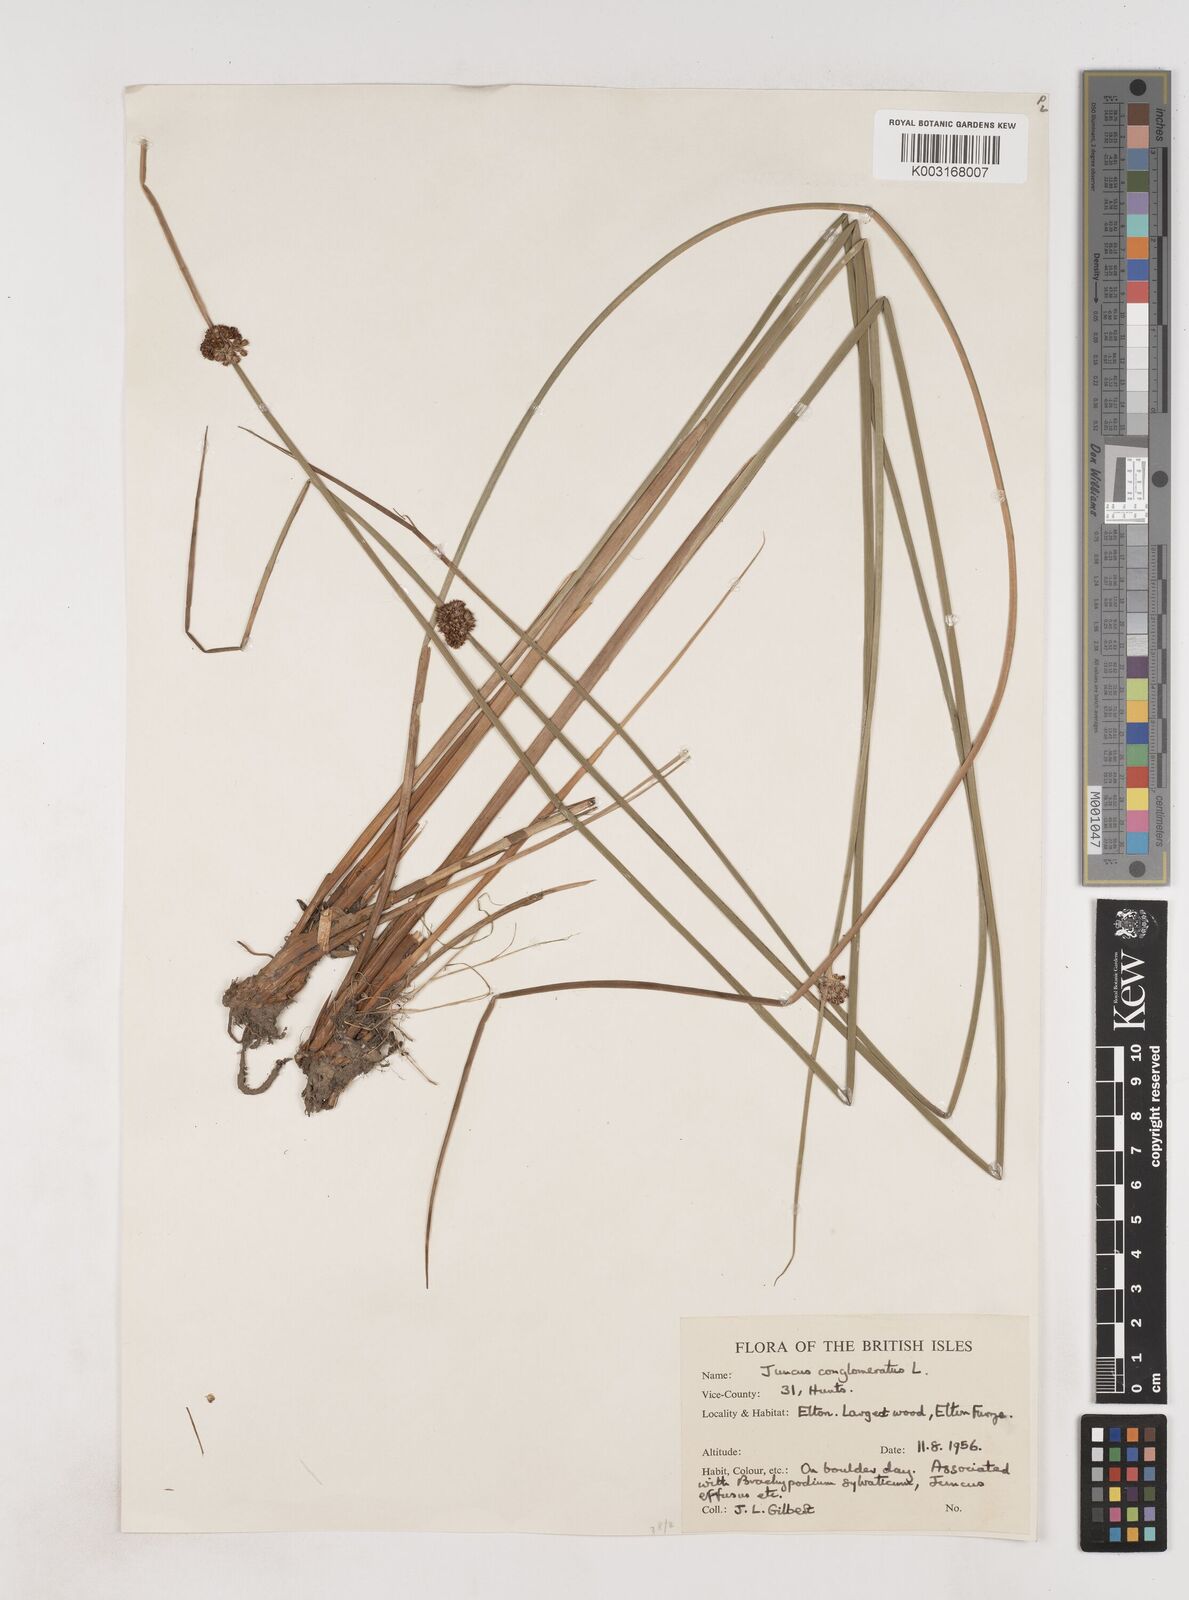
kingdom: Plantae
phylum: Tracheophyta
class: Liliopsida
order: Poales
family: Juncaceae
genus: Juncus
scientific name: Juncus conglomeratus
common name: Compact rush
